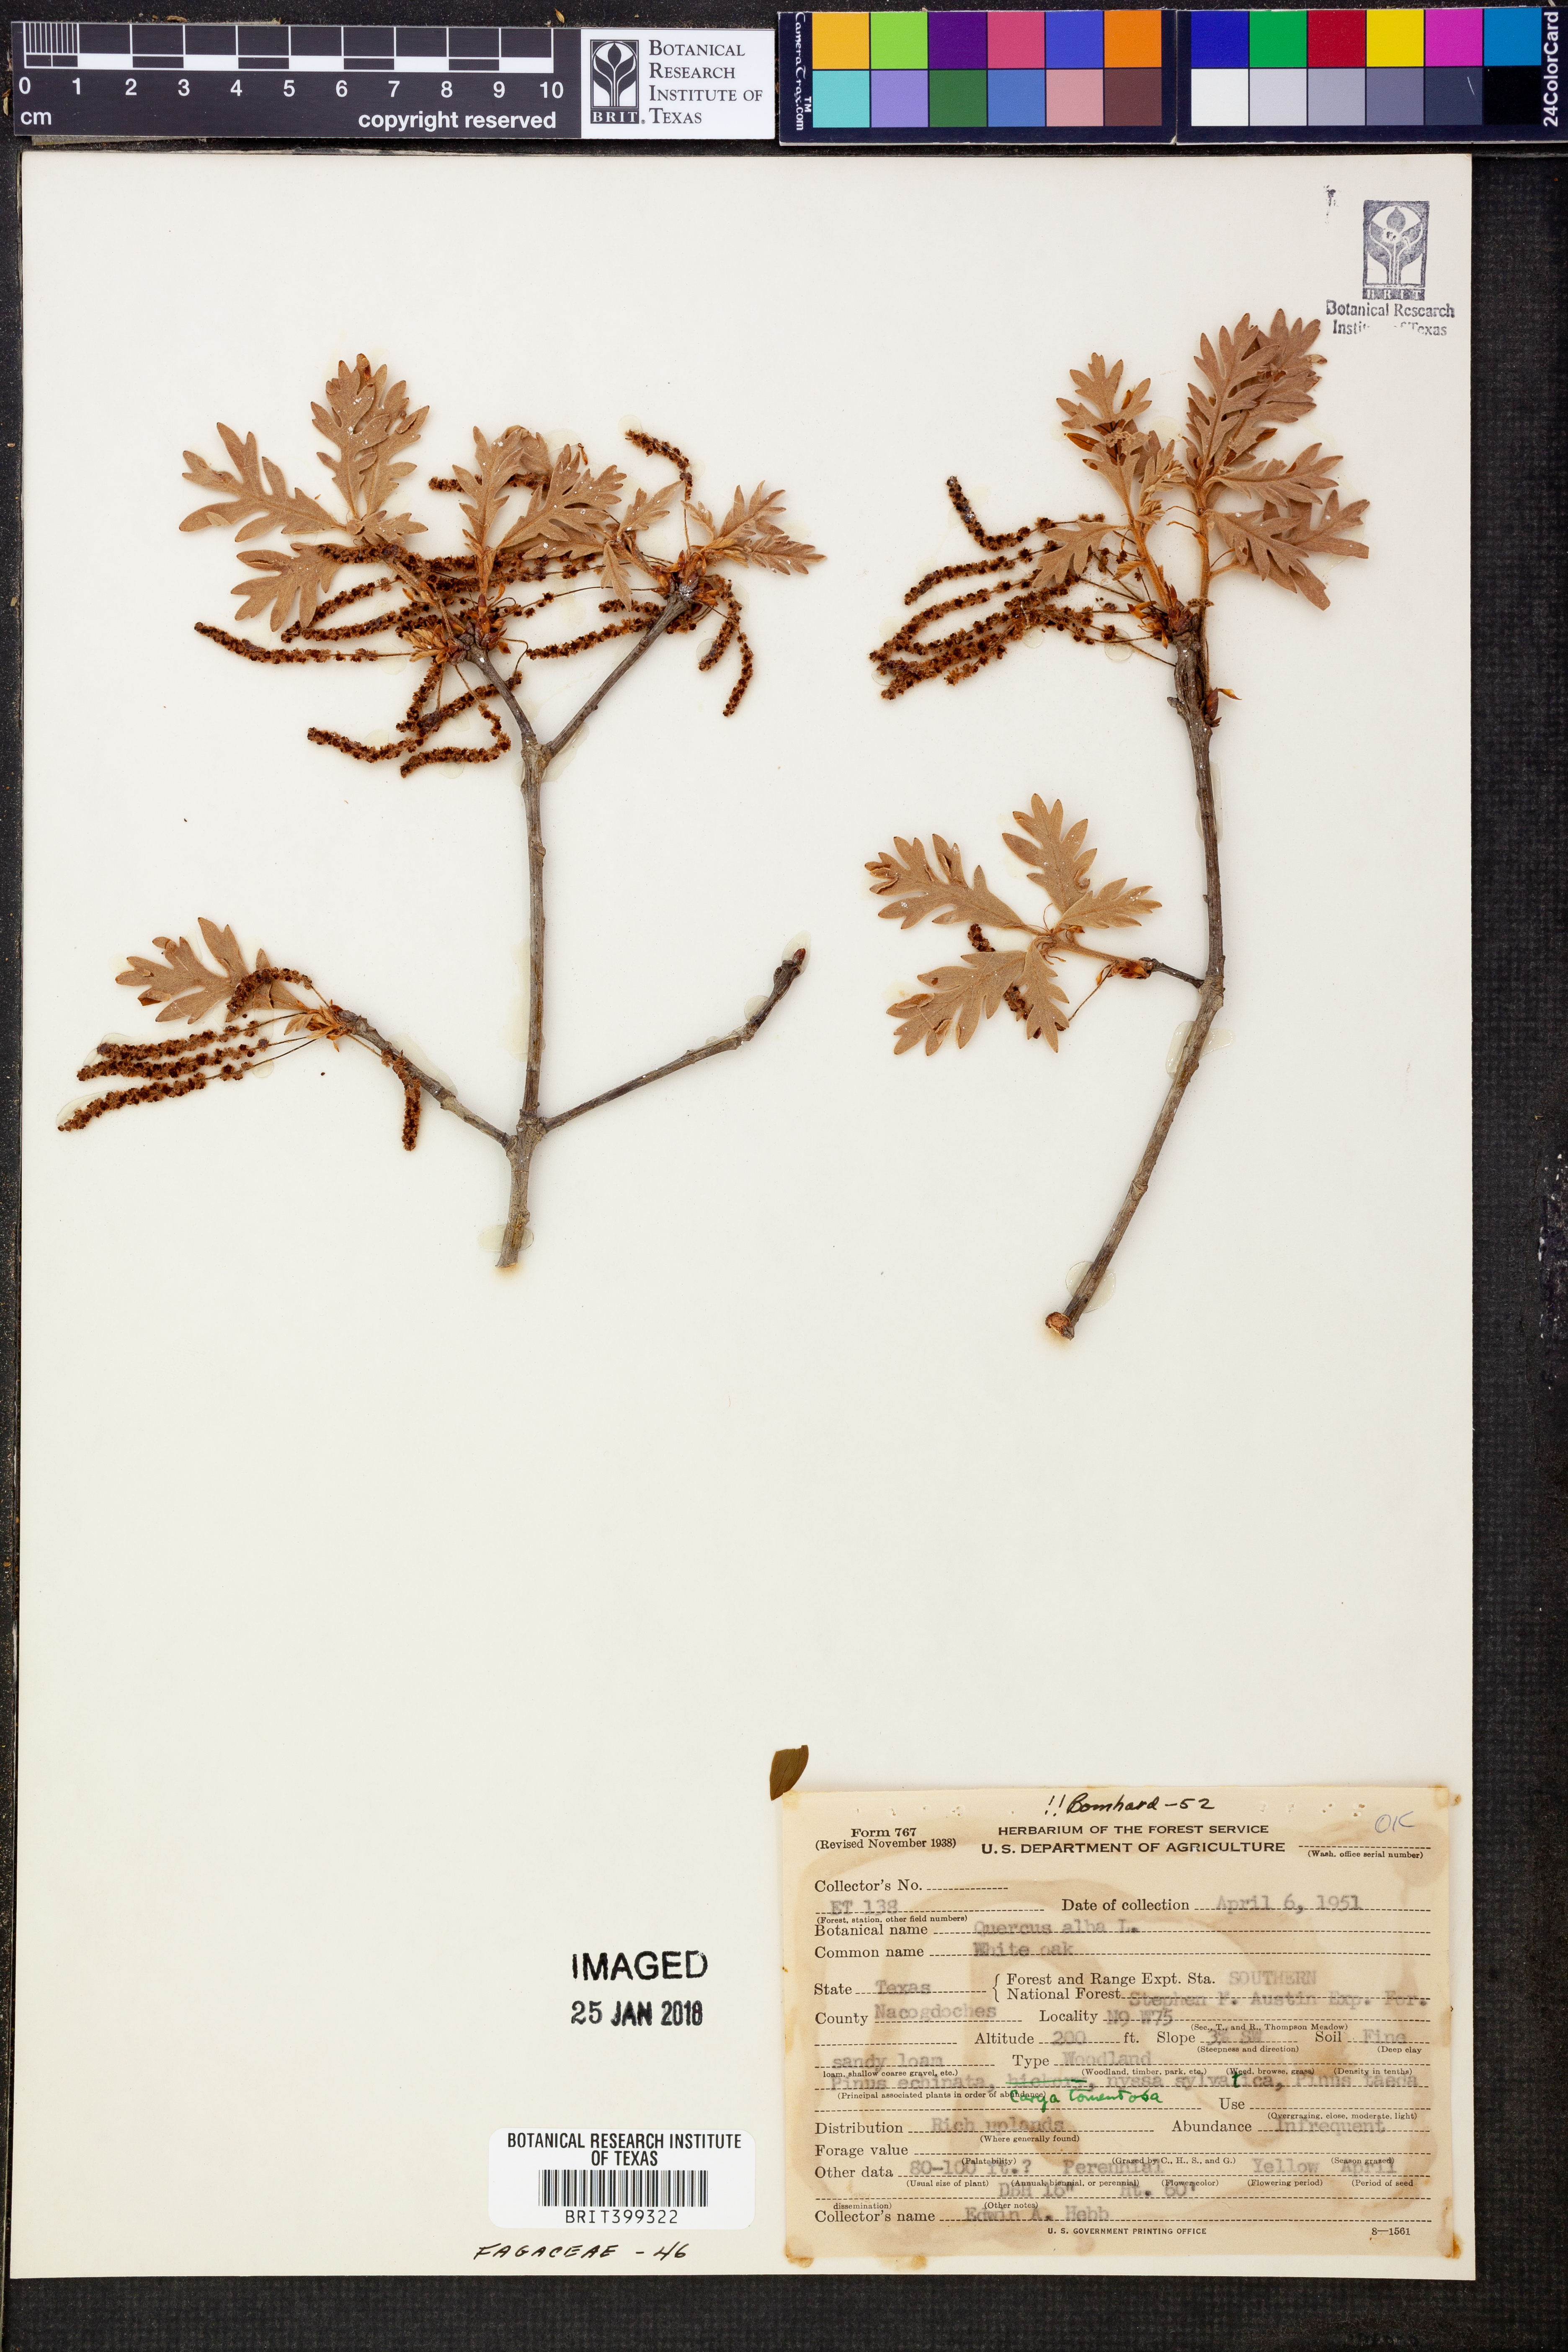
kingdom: Plantae
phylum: Tracheophyta
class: Magnoliopsida
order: Fagales
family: Fagaceae
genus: Quercus
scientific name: Quercus alba
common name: White oak
